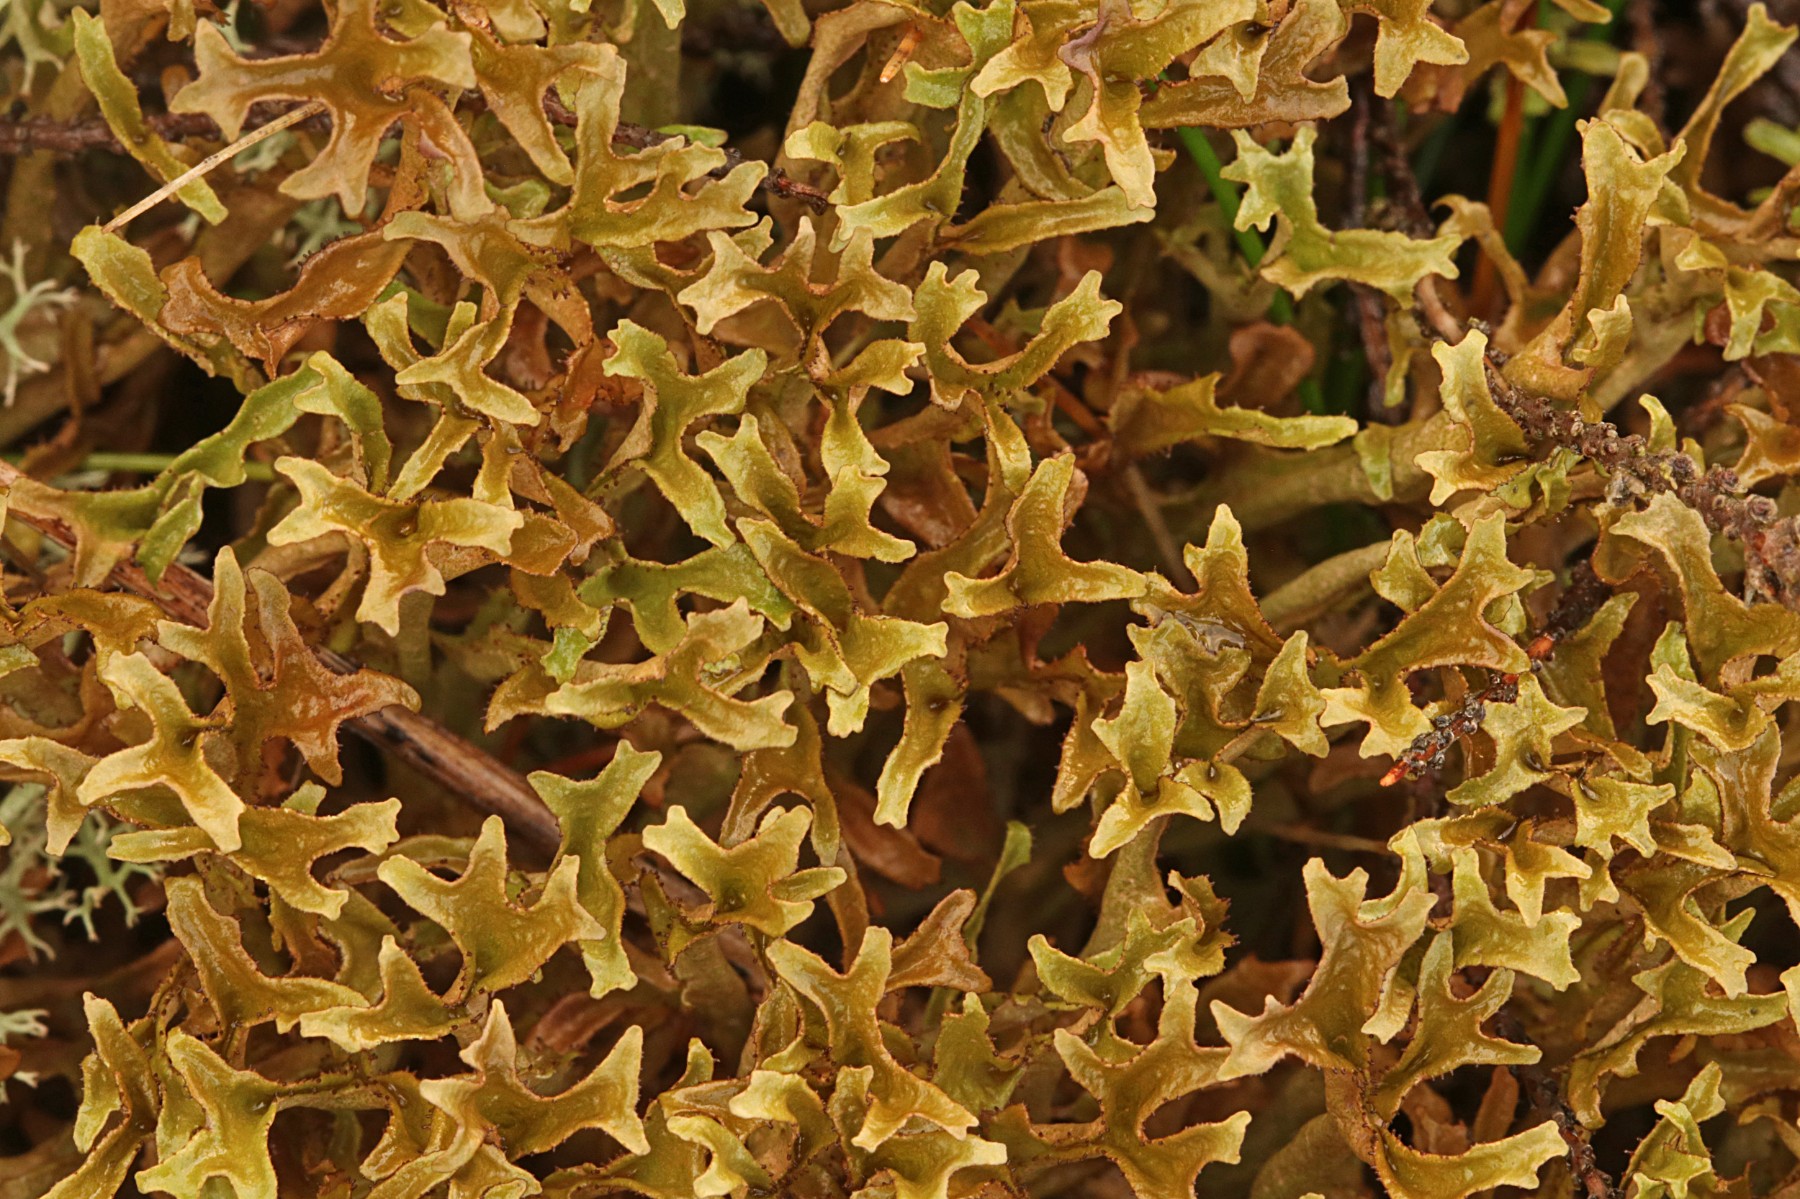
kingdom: Fungi
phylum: Ascomycota
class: Lecanoromycetes
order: Lecanorales
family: Parmeliaceae
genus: Cetraria
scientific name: Cetraria islandica
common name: islandsk kruslav
